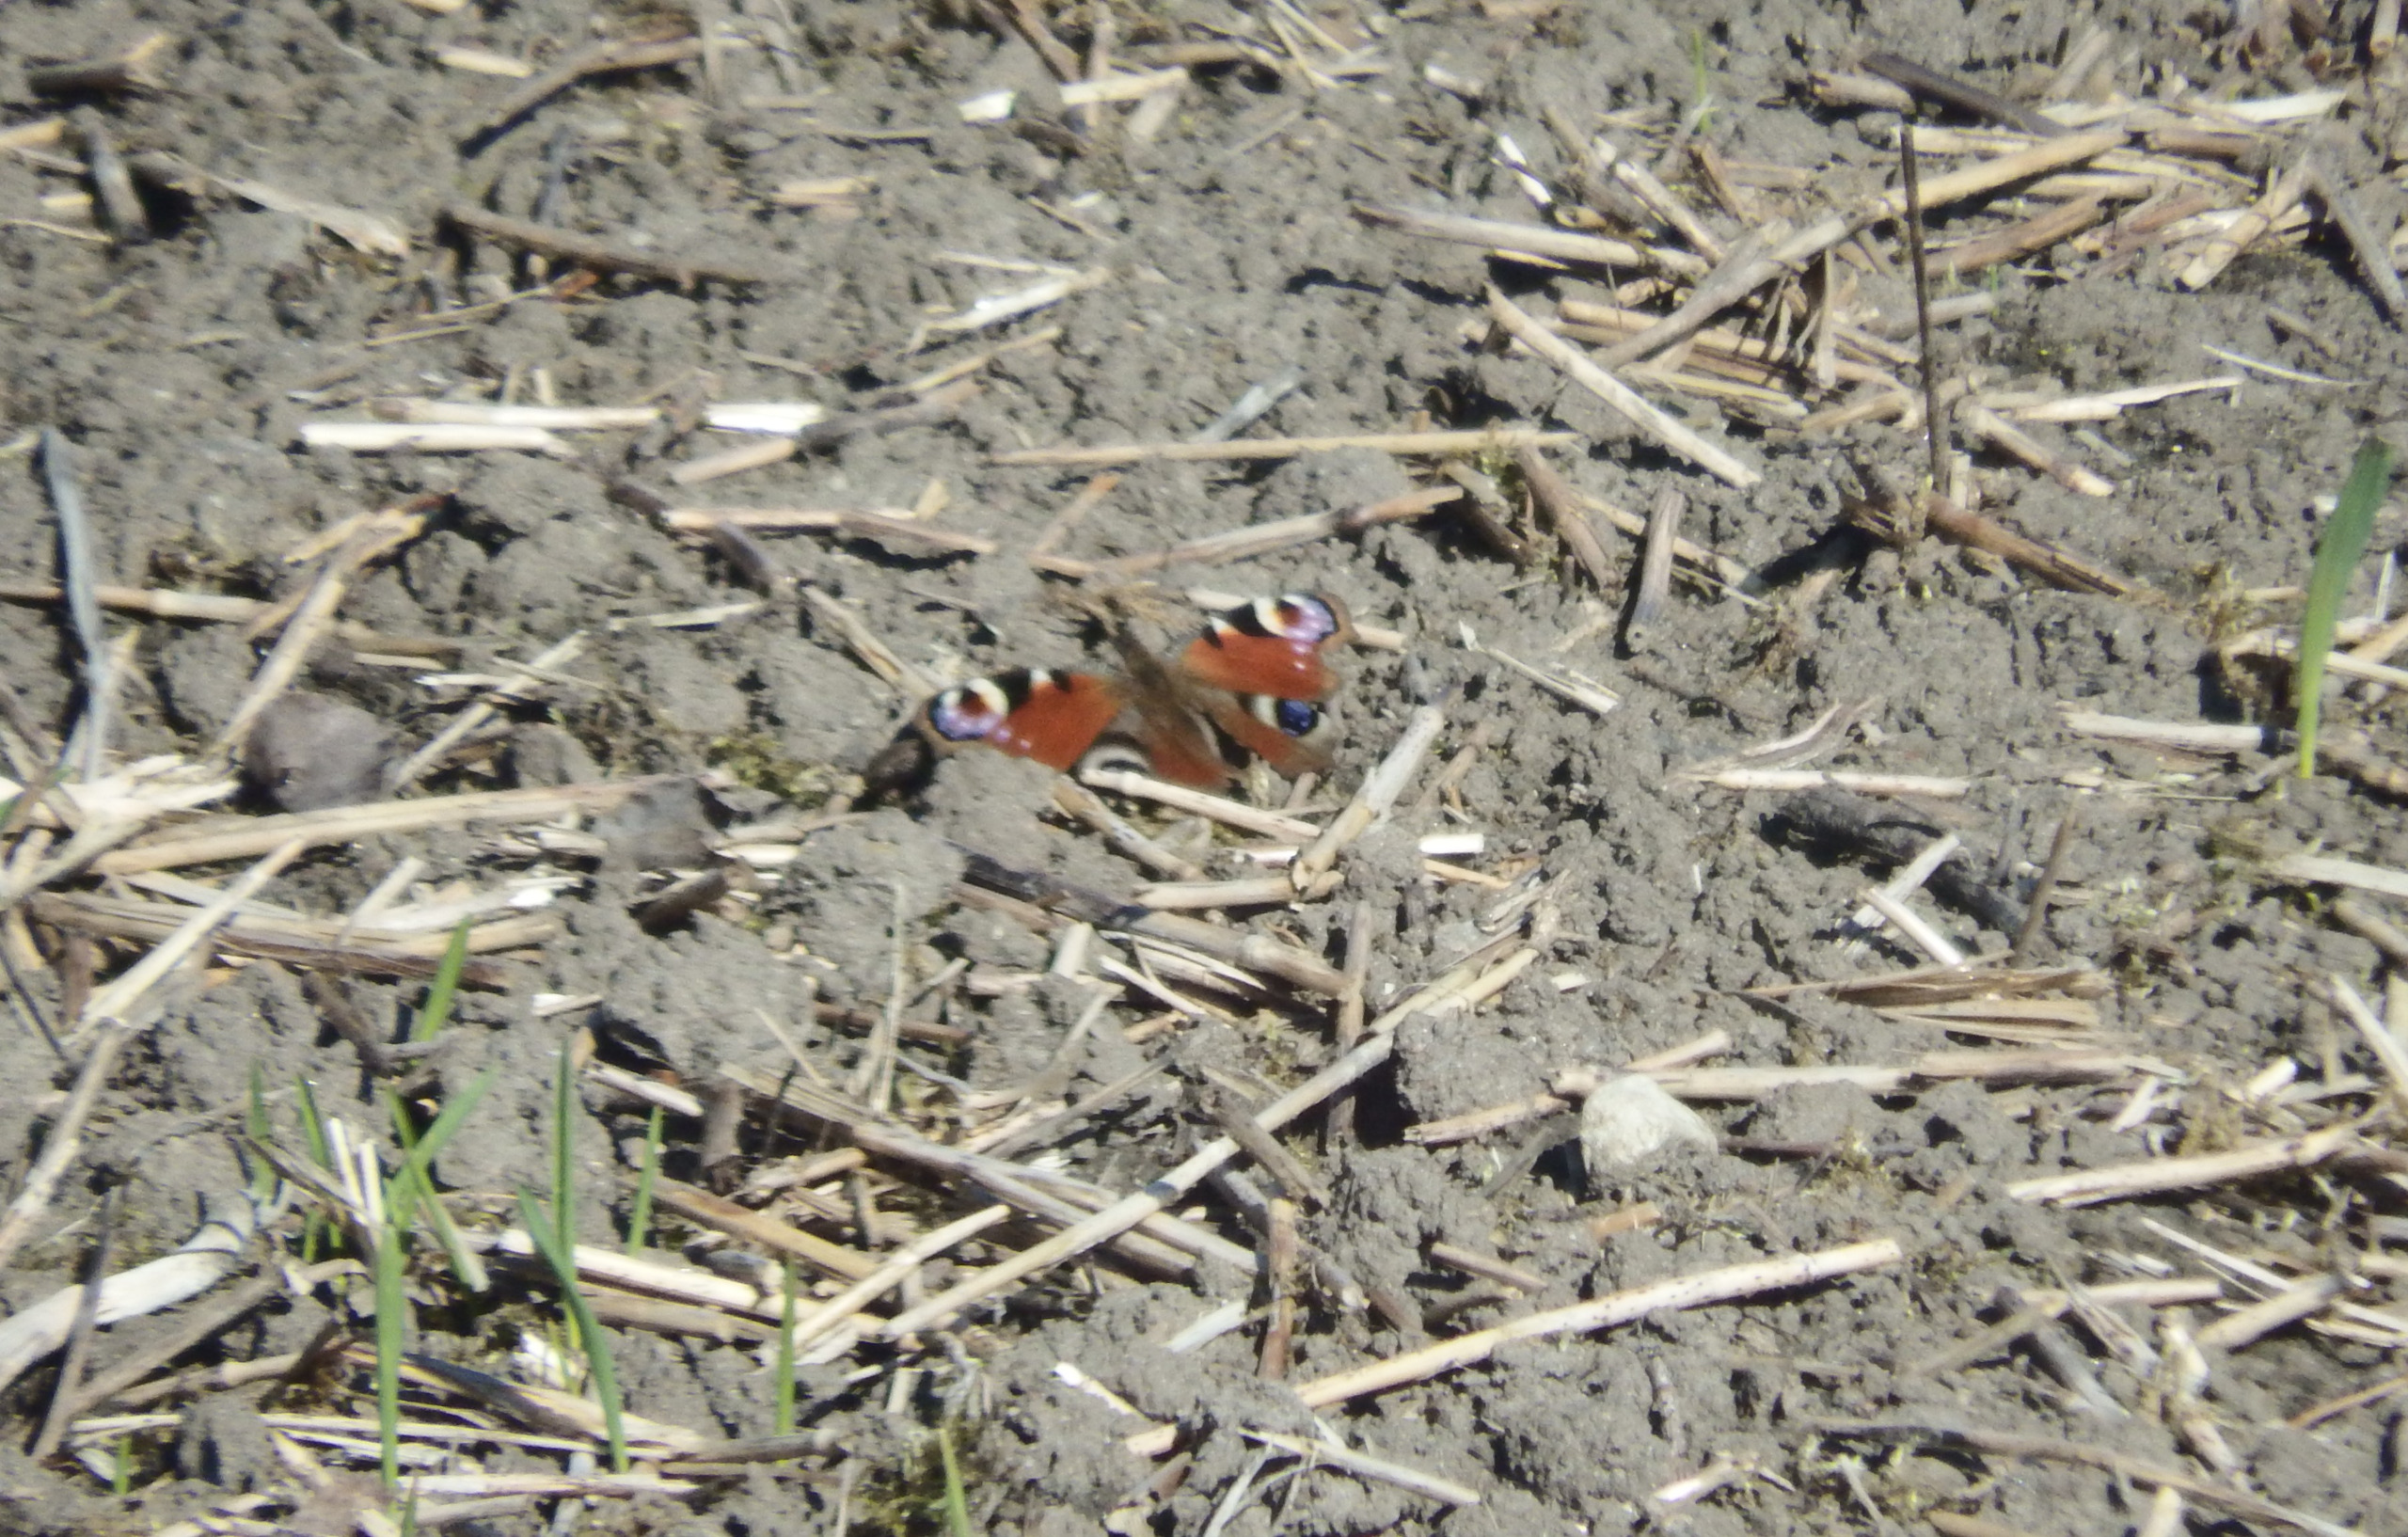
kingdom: Animalia
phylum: Arthropoda
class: Insecta
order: Lepidoptera
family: Nymphalidae
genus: Aglais
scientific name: Aglais io
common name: Dagpåfugleøje
